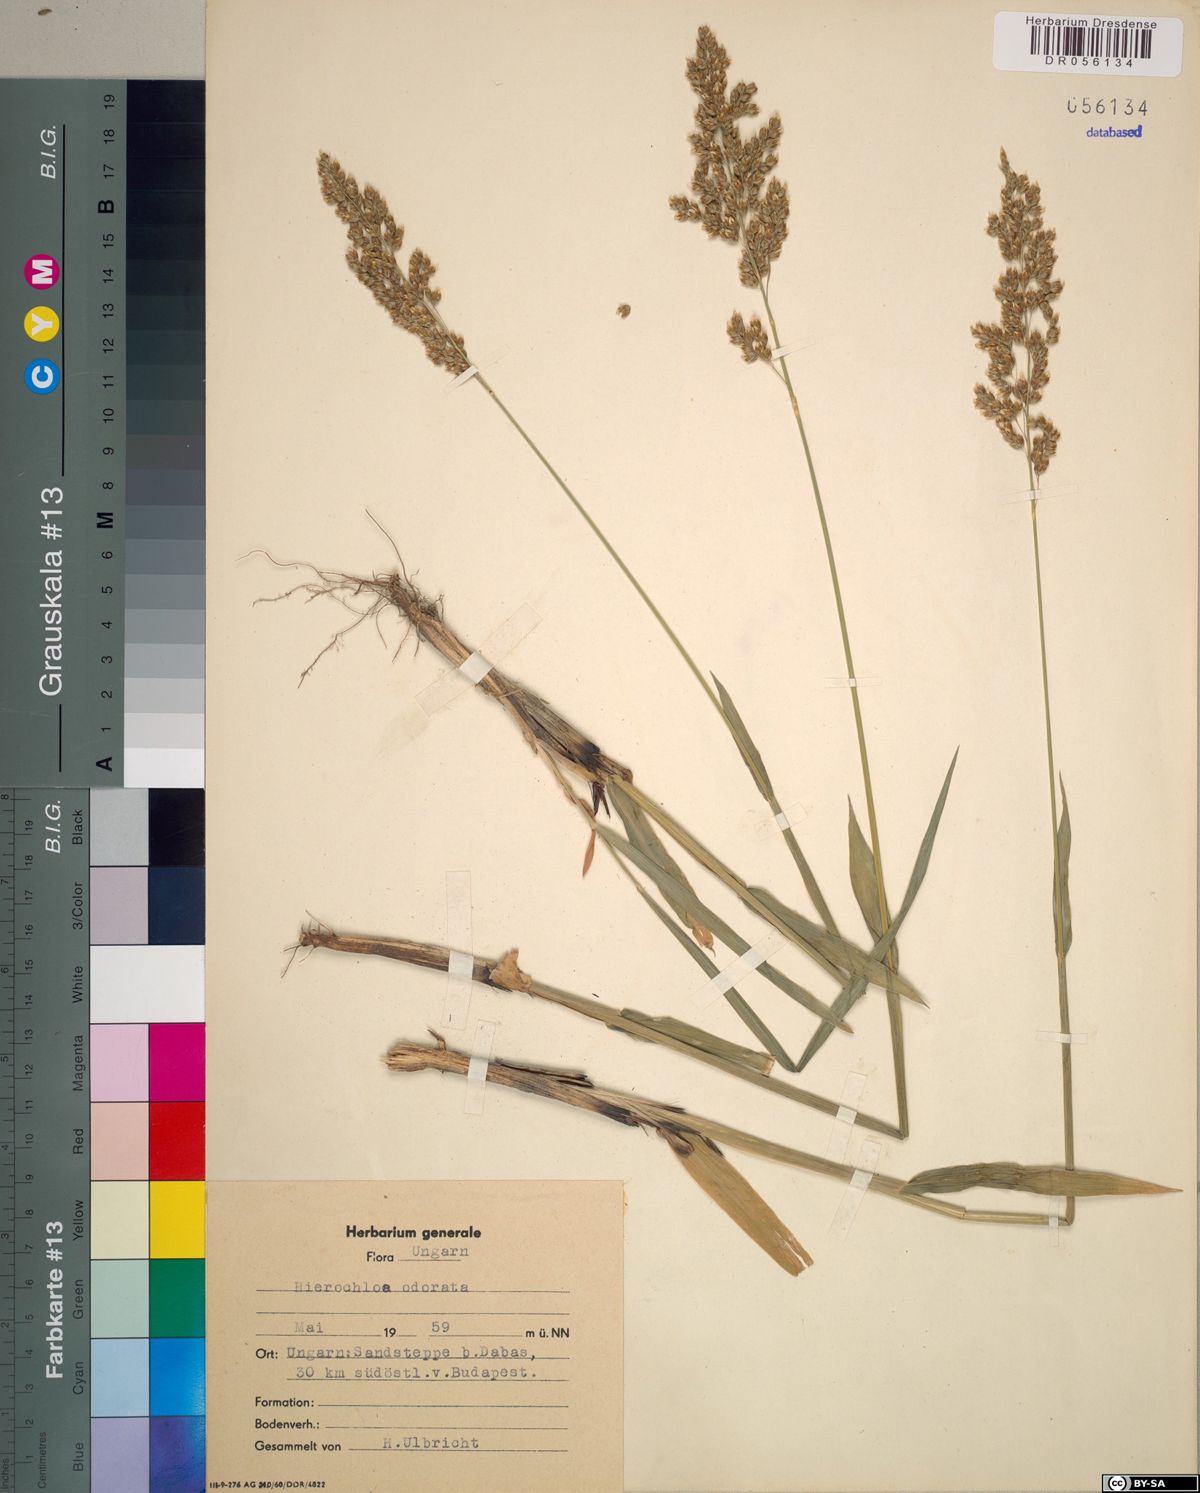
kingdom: Plantae
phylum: Tracheophyta
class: Liliopsida
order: Poales
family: Poaceae
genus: Anthoxanthum
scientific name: Anthoxanthum nitens
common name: Holy grass
